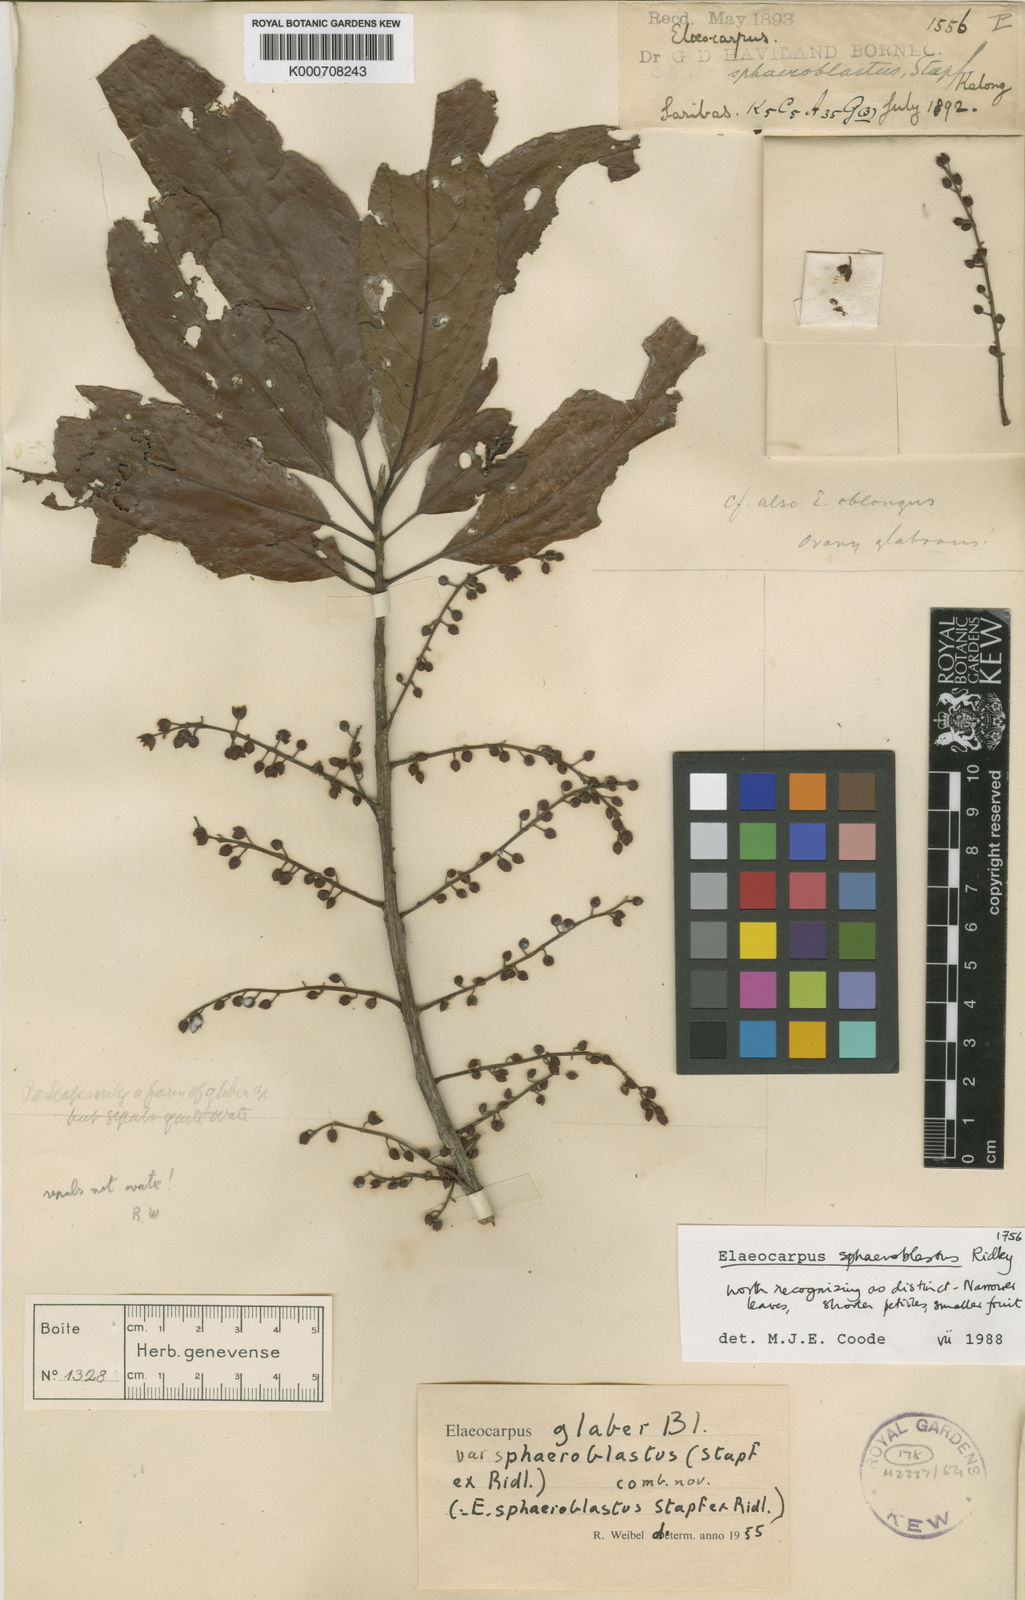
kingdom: Plantae
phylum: Tracheophyta
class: Magnoliopsida
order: Oxalidales
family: Elaeocarpaceae
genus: Elaeocarpus
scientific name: Elaeocarpus glaber
